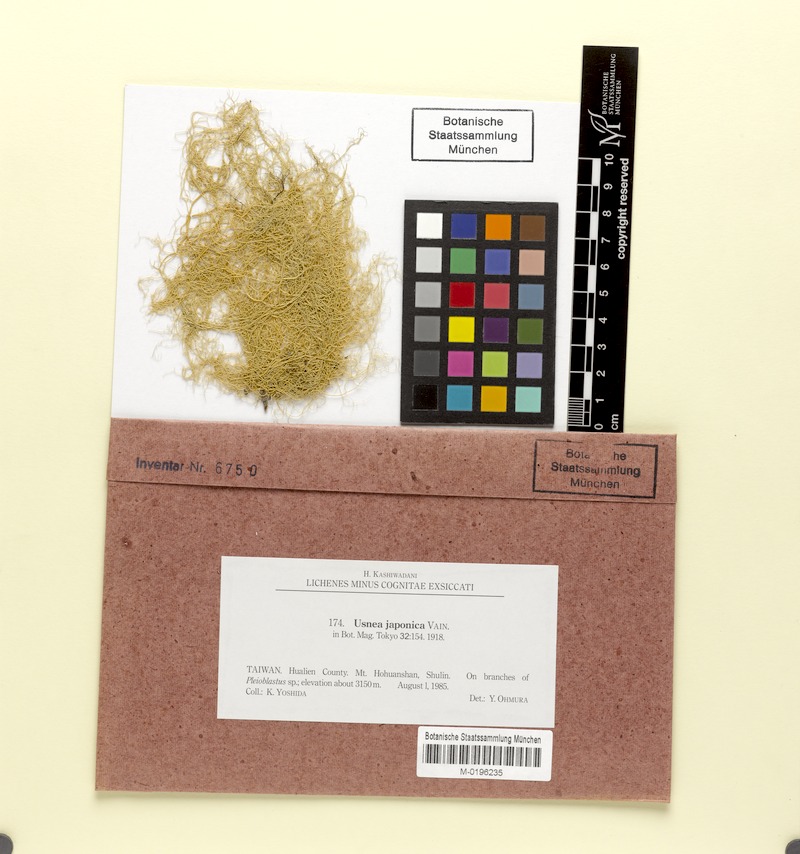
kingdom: Fungi
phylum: Ascomycota
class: Lecanoromycetes
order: Lecanorales
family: Parmeliaceae
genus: Usnea
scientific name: Usnea japonica
